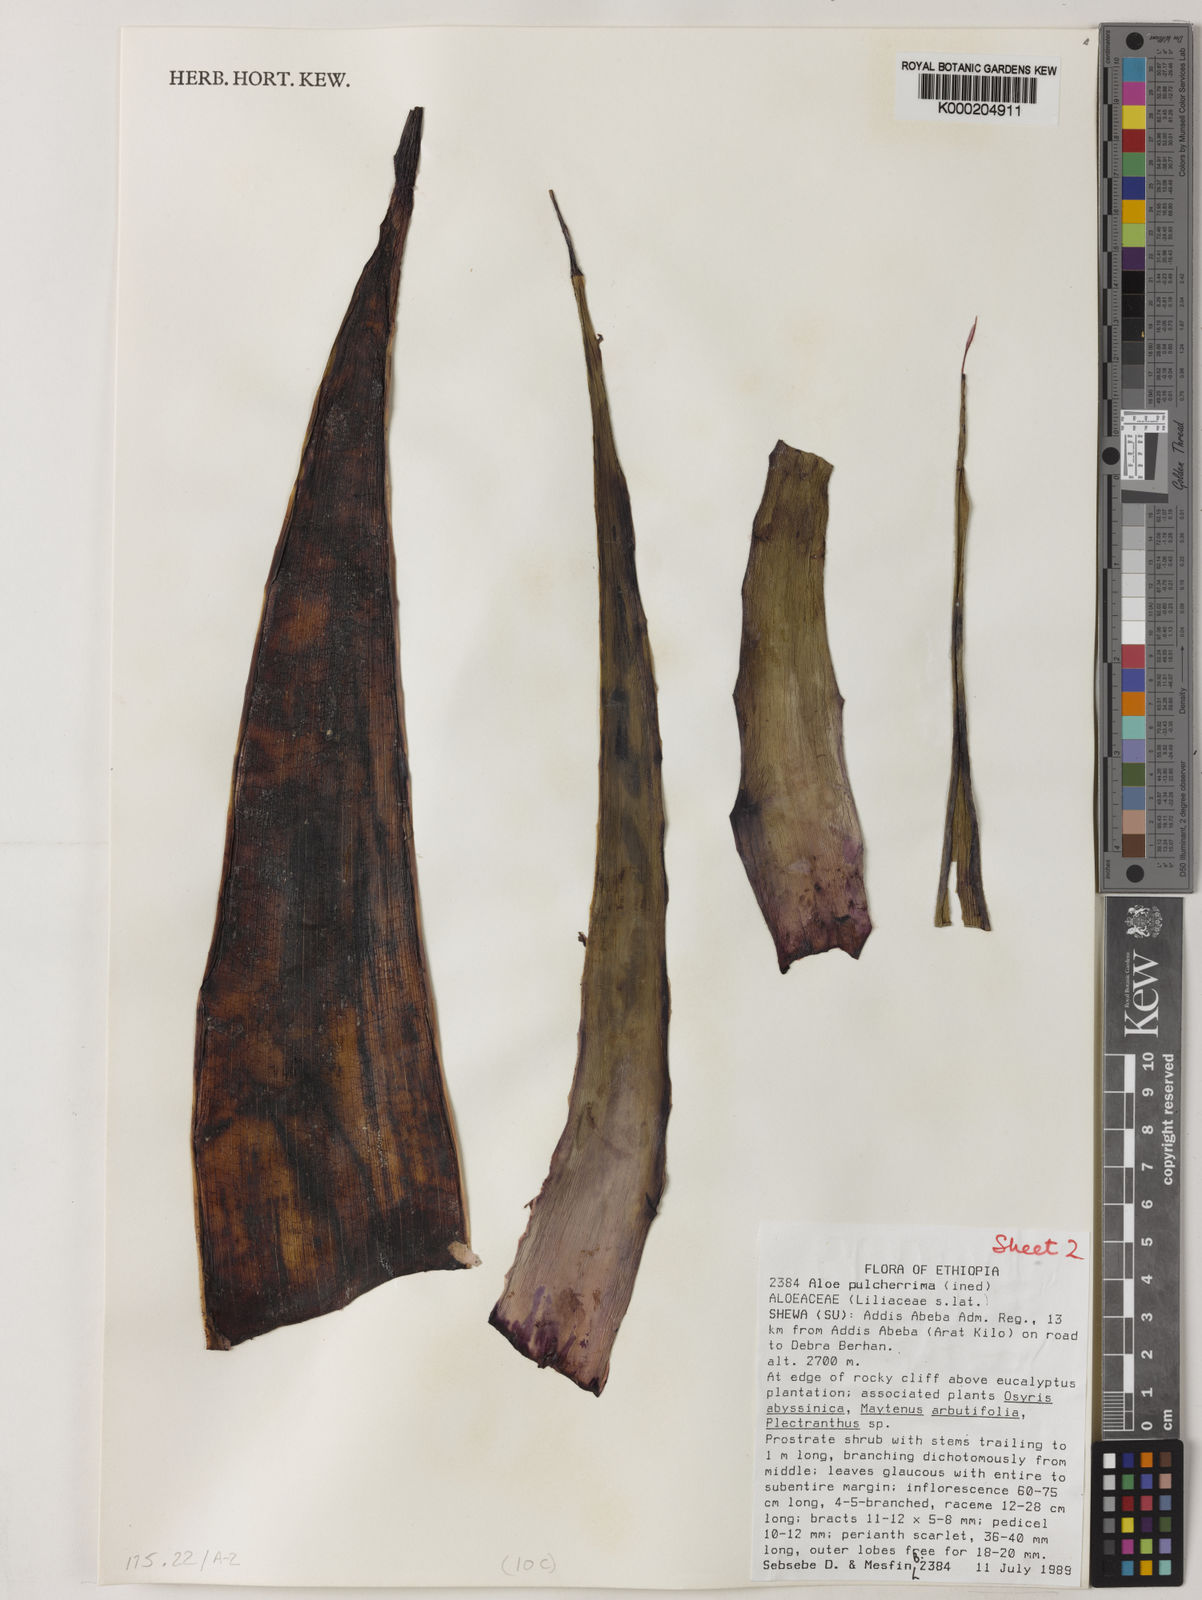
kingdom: Plantae
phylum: Tracheophyta
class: Liliopsida
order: Asparagales
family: Asphodelaceae
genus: Aloe
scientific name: Aloe pulcherrima
